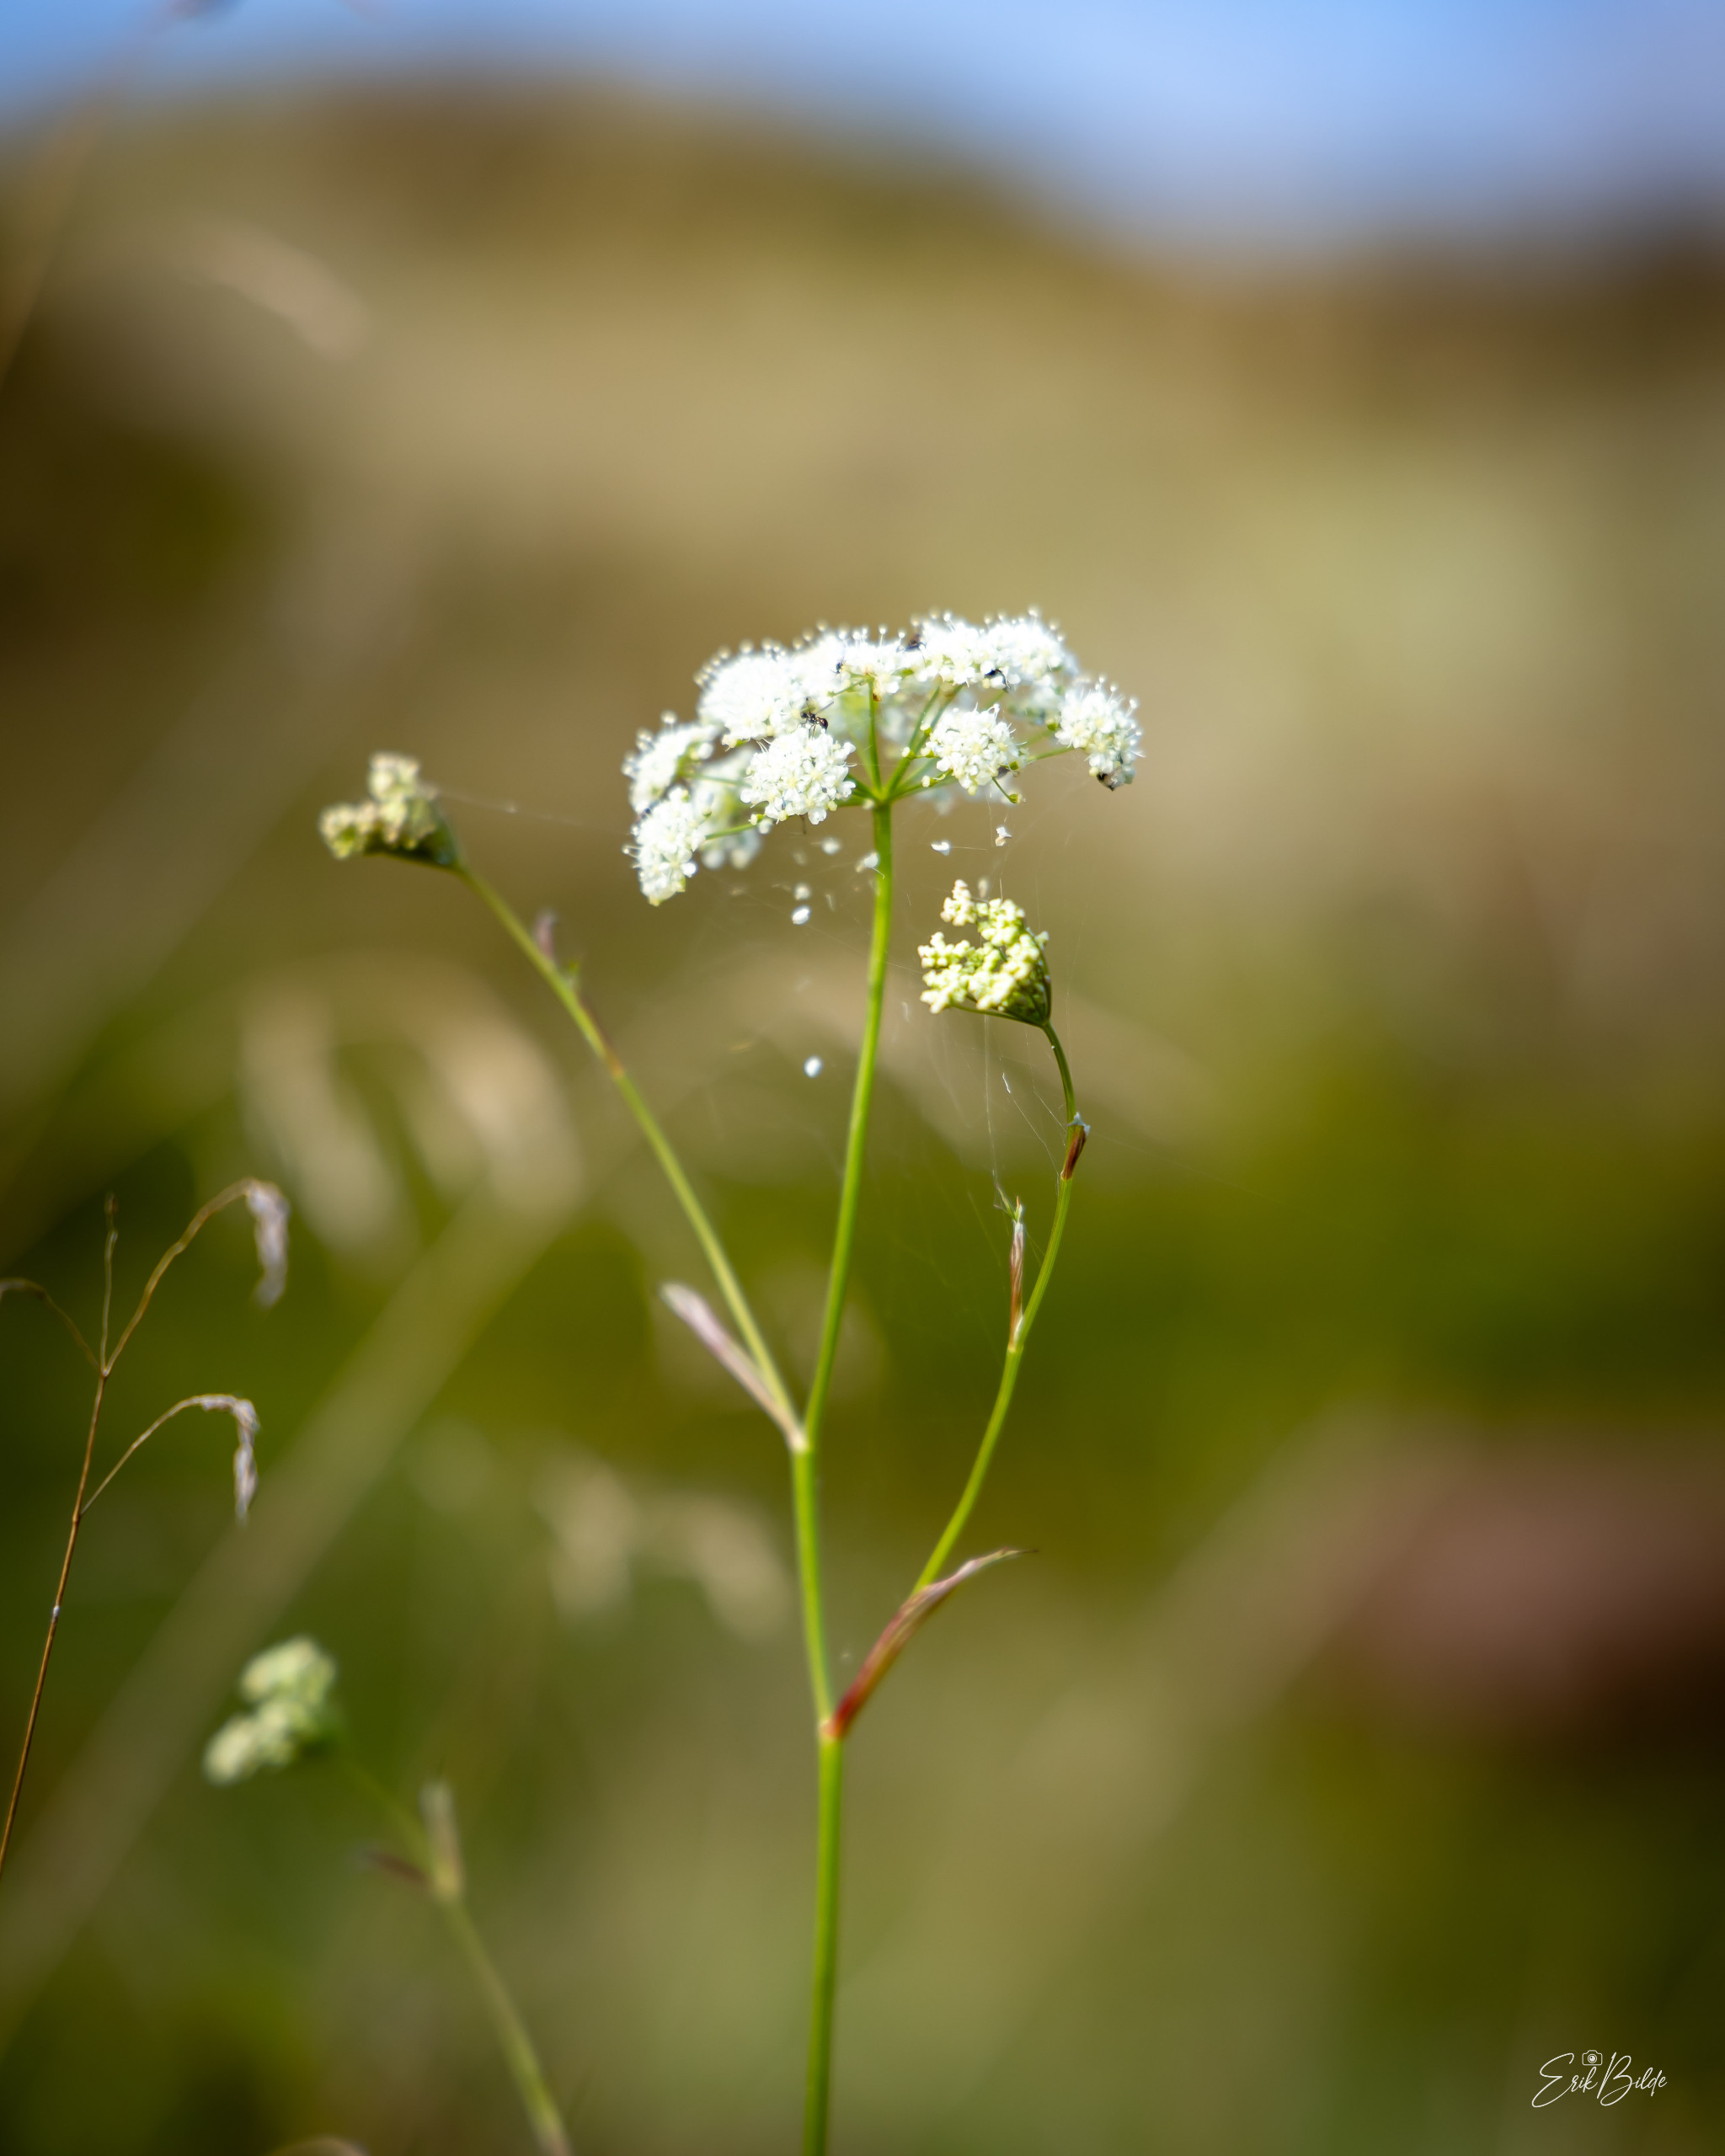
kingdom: Plantae
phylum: Tracheophyta
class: Magnoliopsida
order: Apiales
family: Apiaceae
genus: Pimpinella
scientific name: Pimpinella saxifraga
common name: Almindelig pimpinelle
